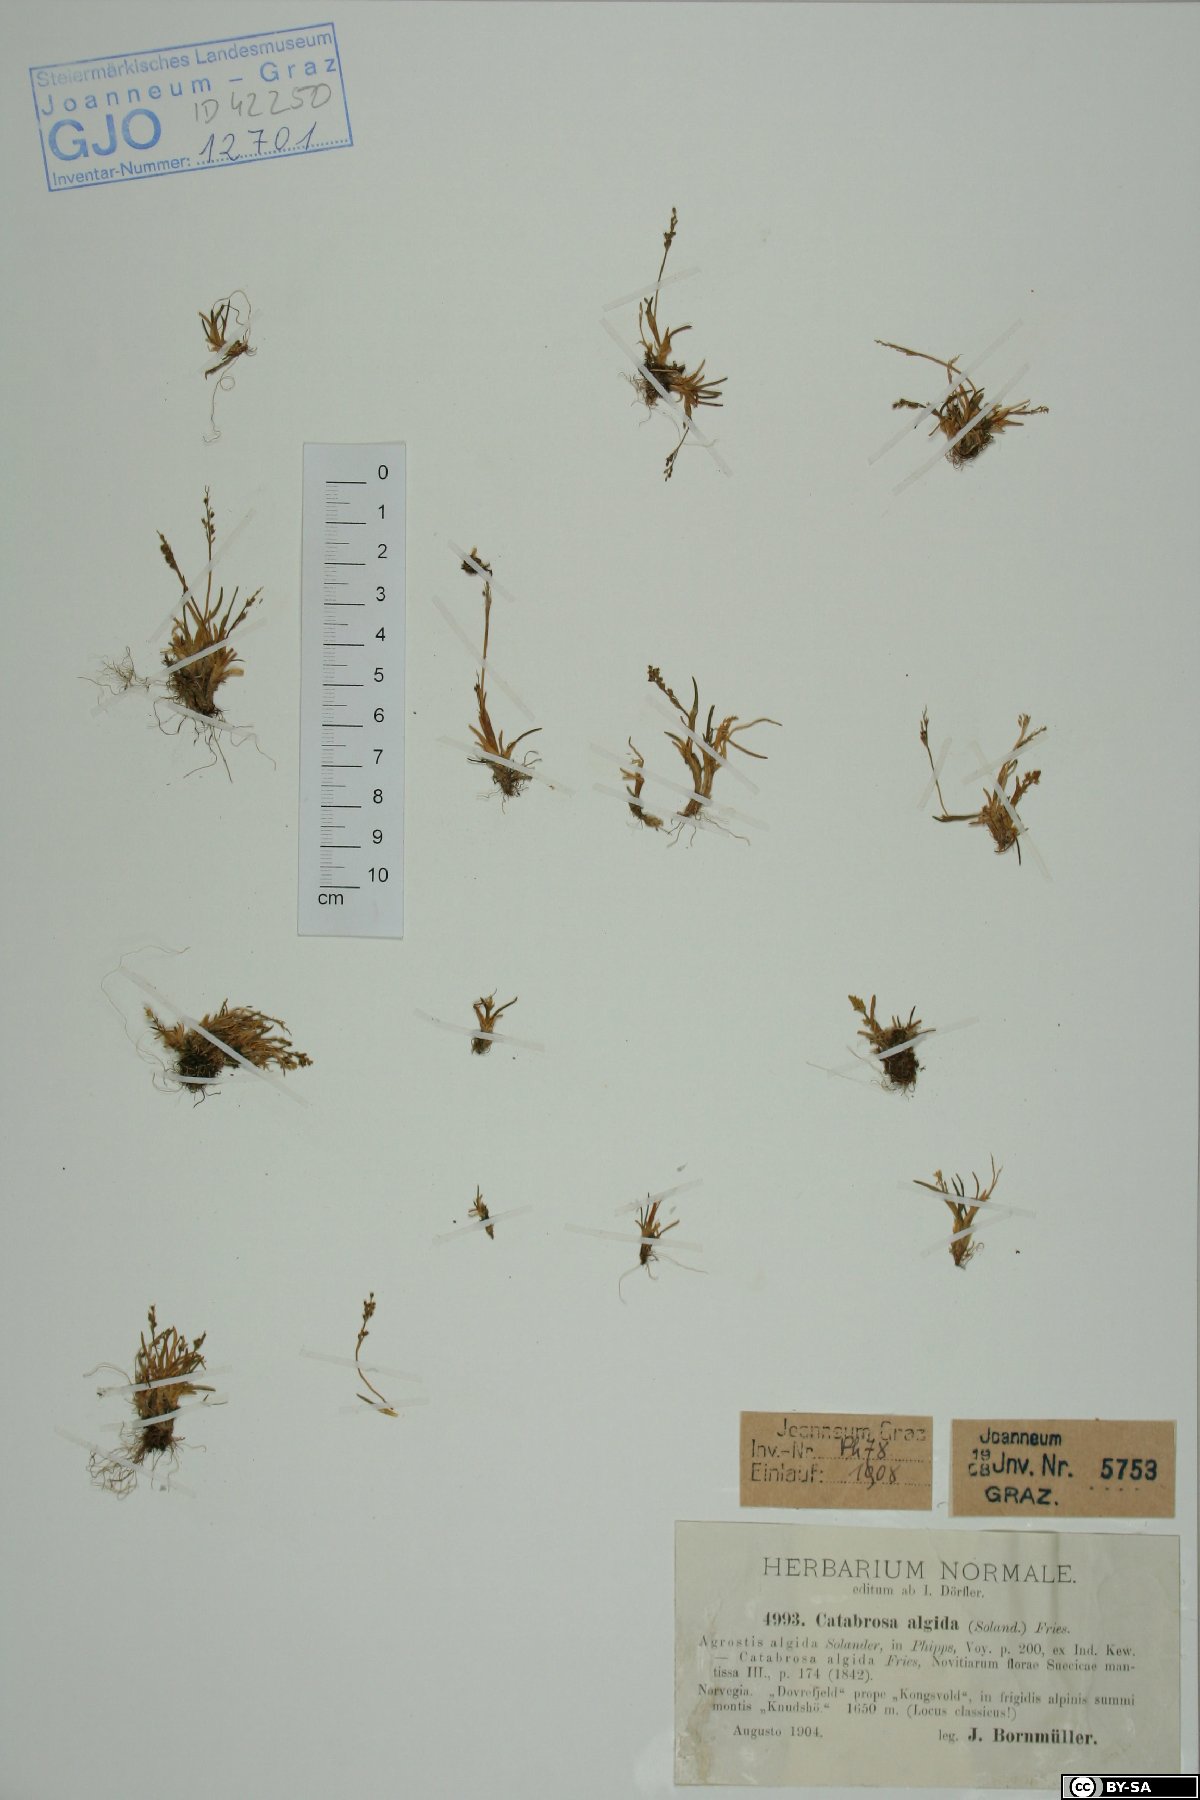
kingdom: Plantae
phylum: Tracheophyta
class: Liliopsida
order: Poales
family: Poaceae
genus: Phippsia
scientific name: Phippsia algida
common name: Ice grass
